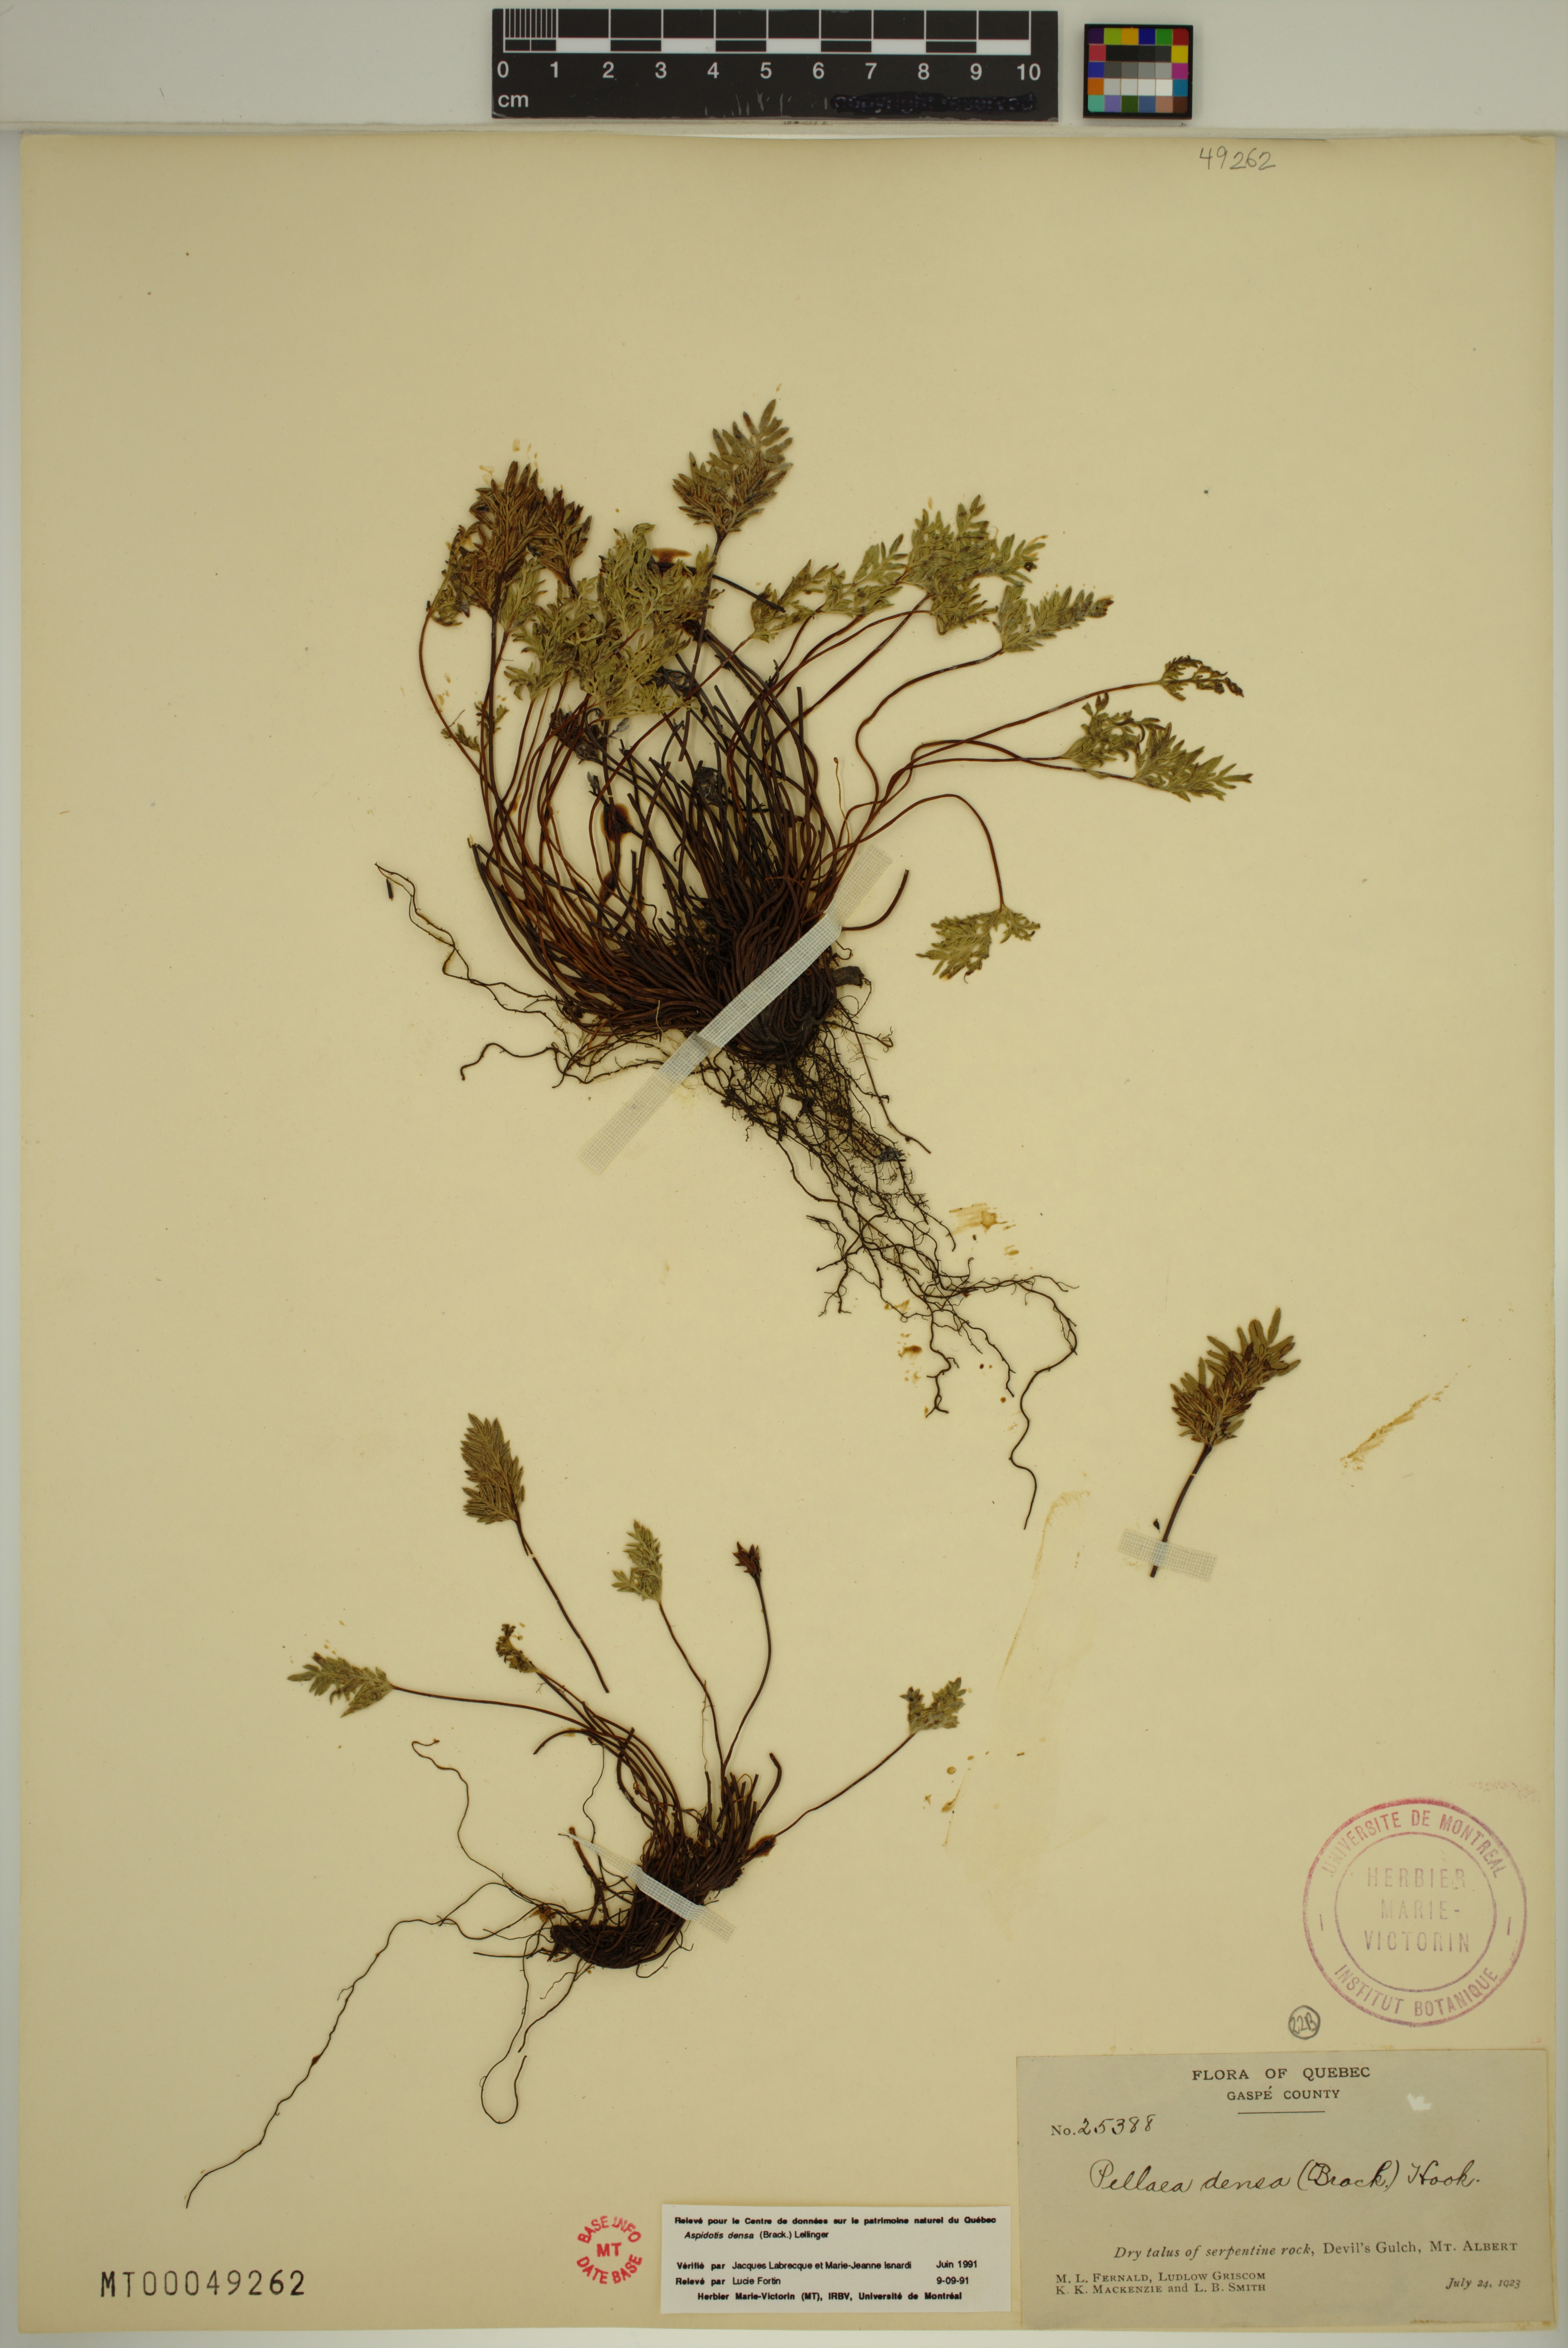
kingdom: Plantae
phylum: Tracheophyta
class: Polypodiopsida
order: Polypodiales
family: Pteridaceae
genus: Aspidotis
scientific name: Aspidotis densa
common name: Indian's dream
